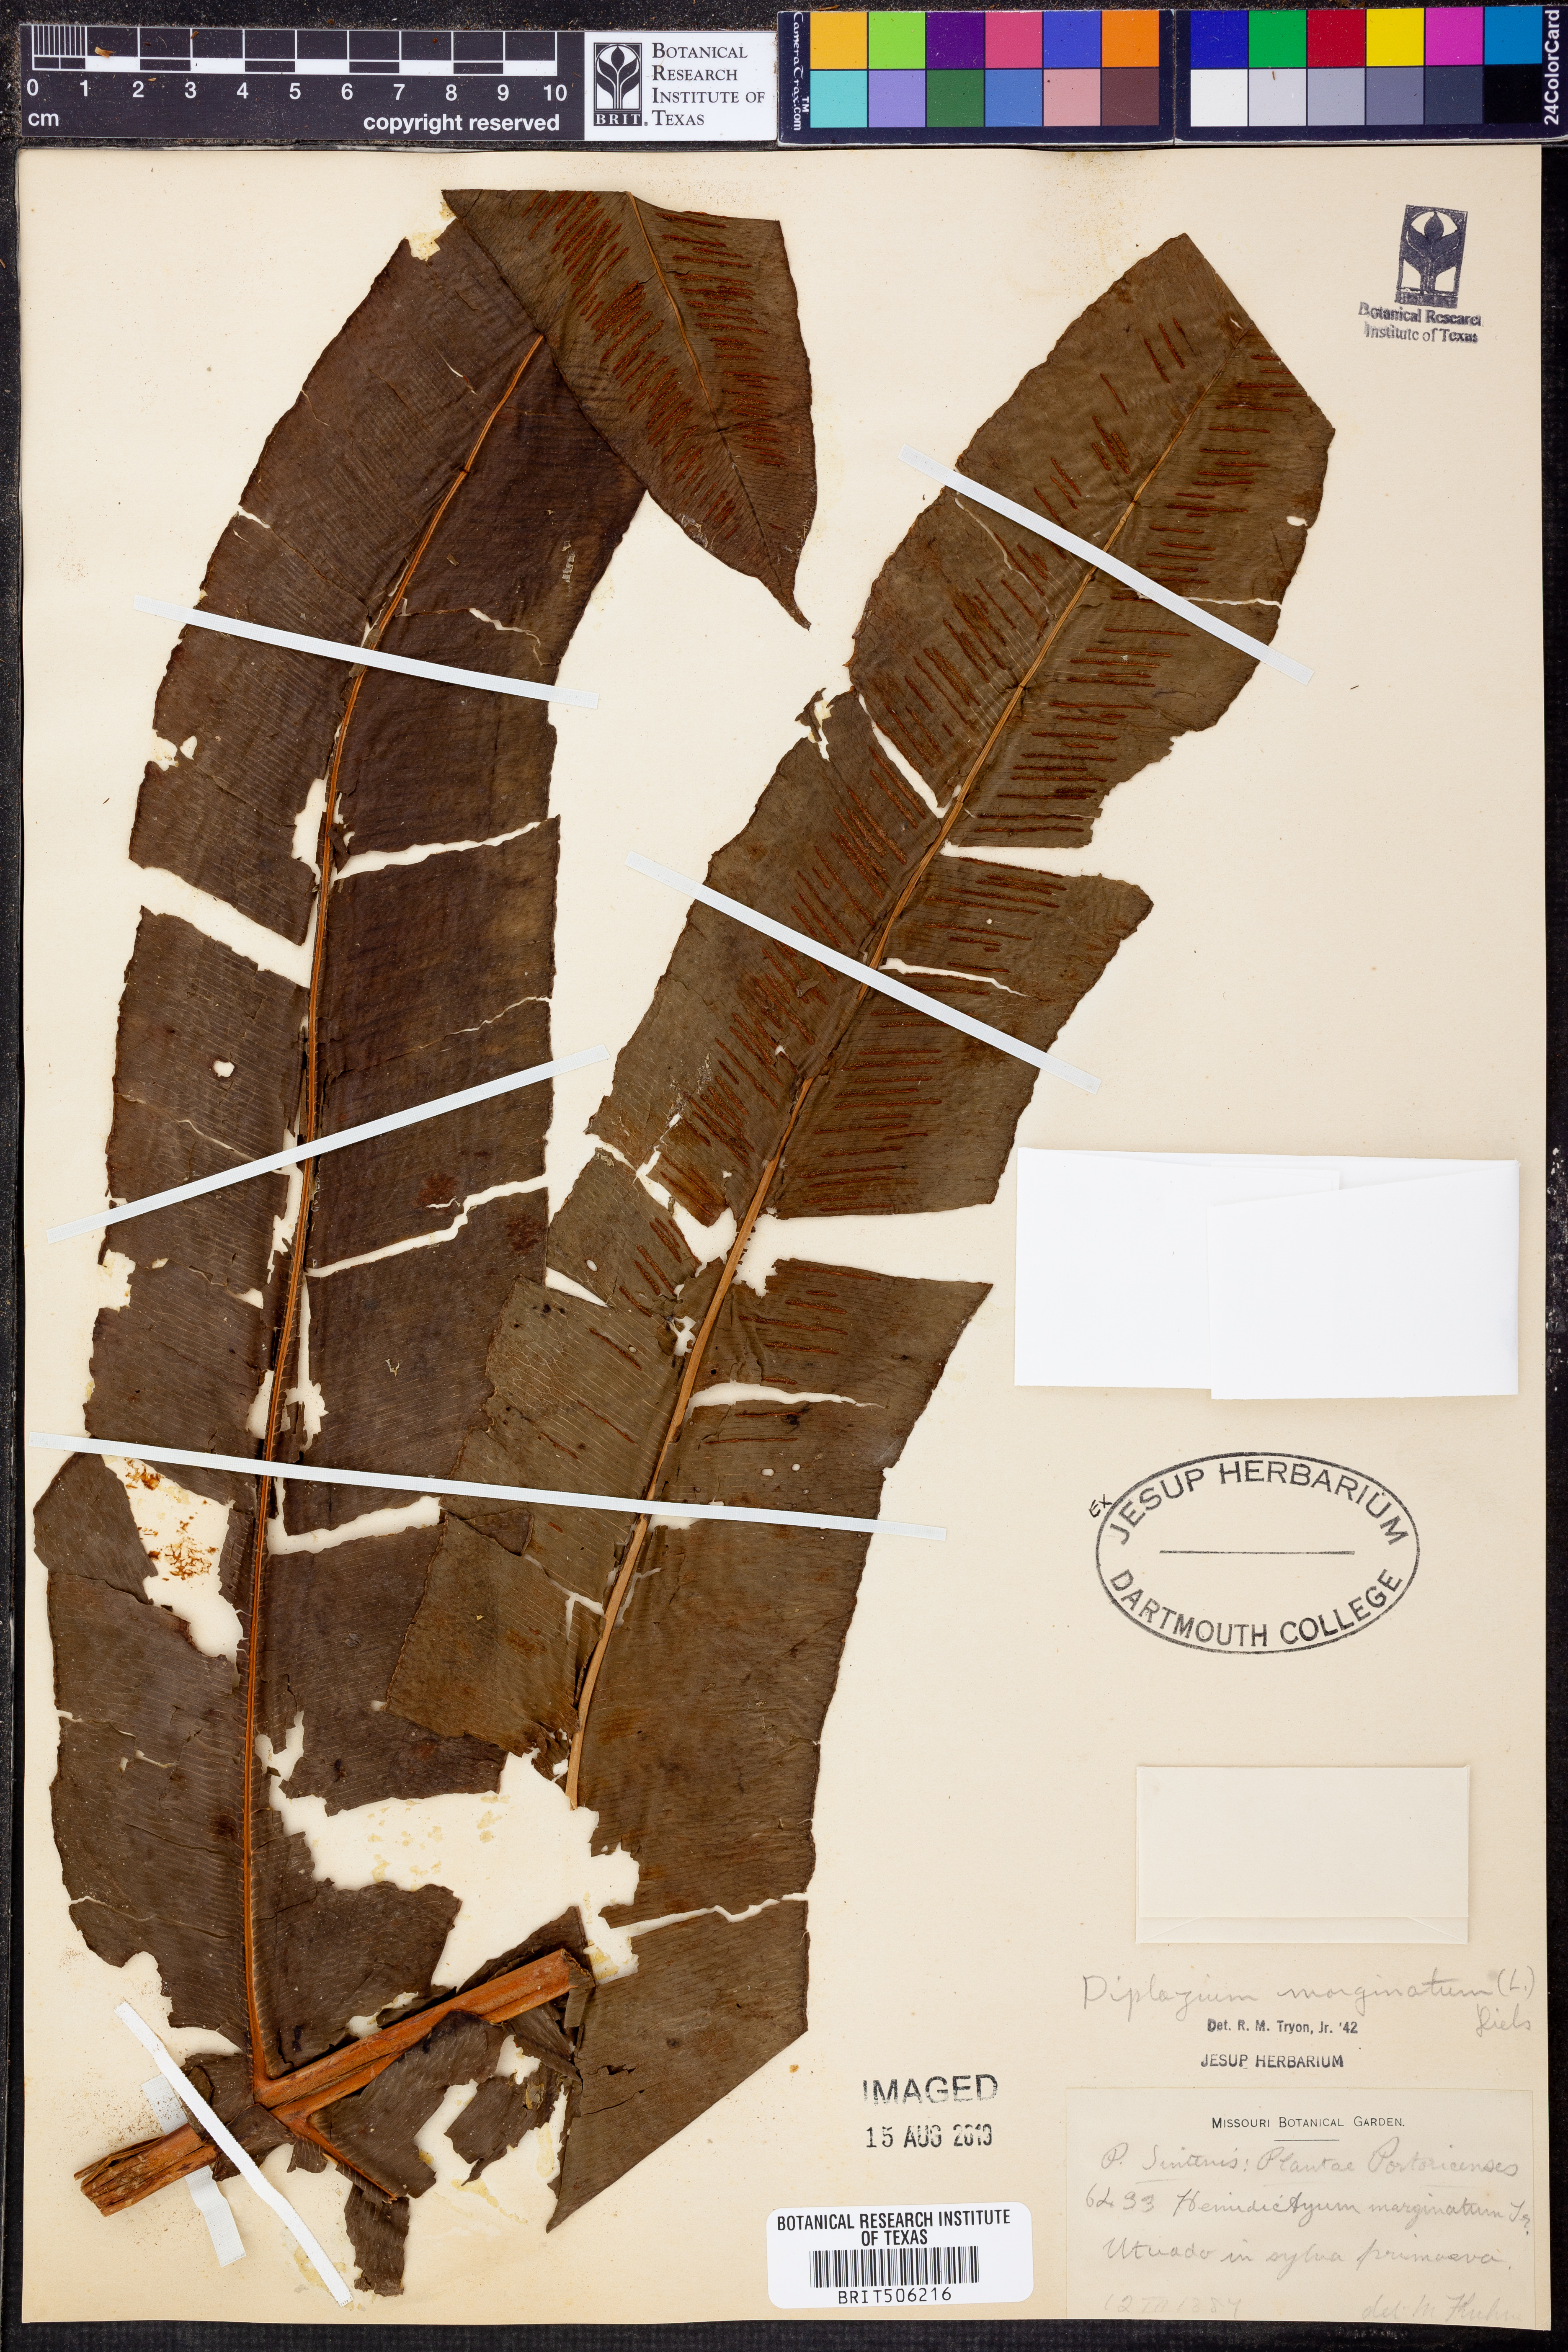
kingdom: Plantae
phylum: Tracheophyta
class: Polypodiopsida
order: Polypodiales
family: Athyriaceae
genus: Diplazium
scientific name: Diplazium polypodioides
